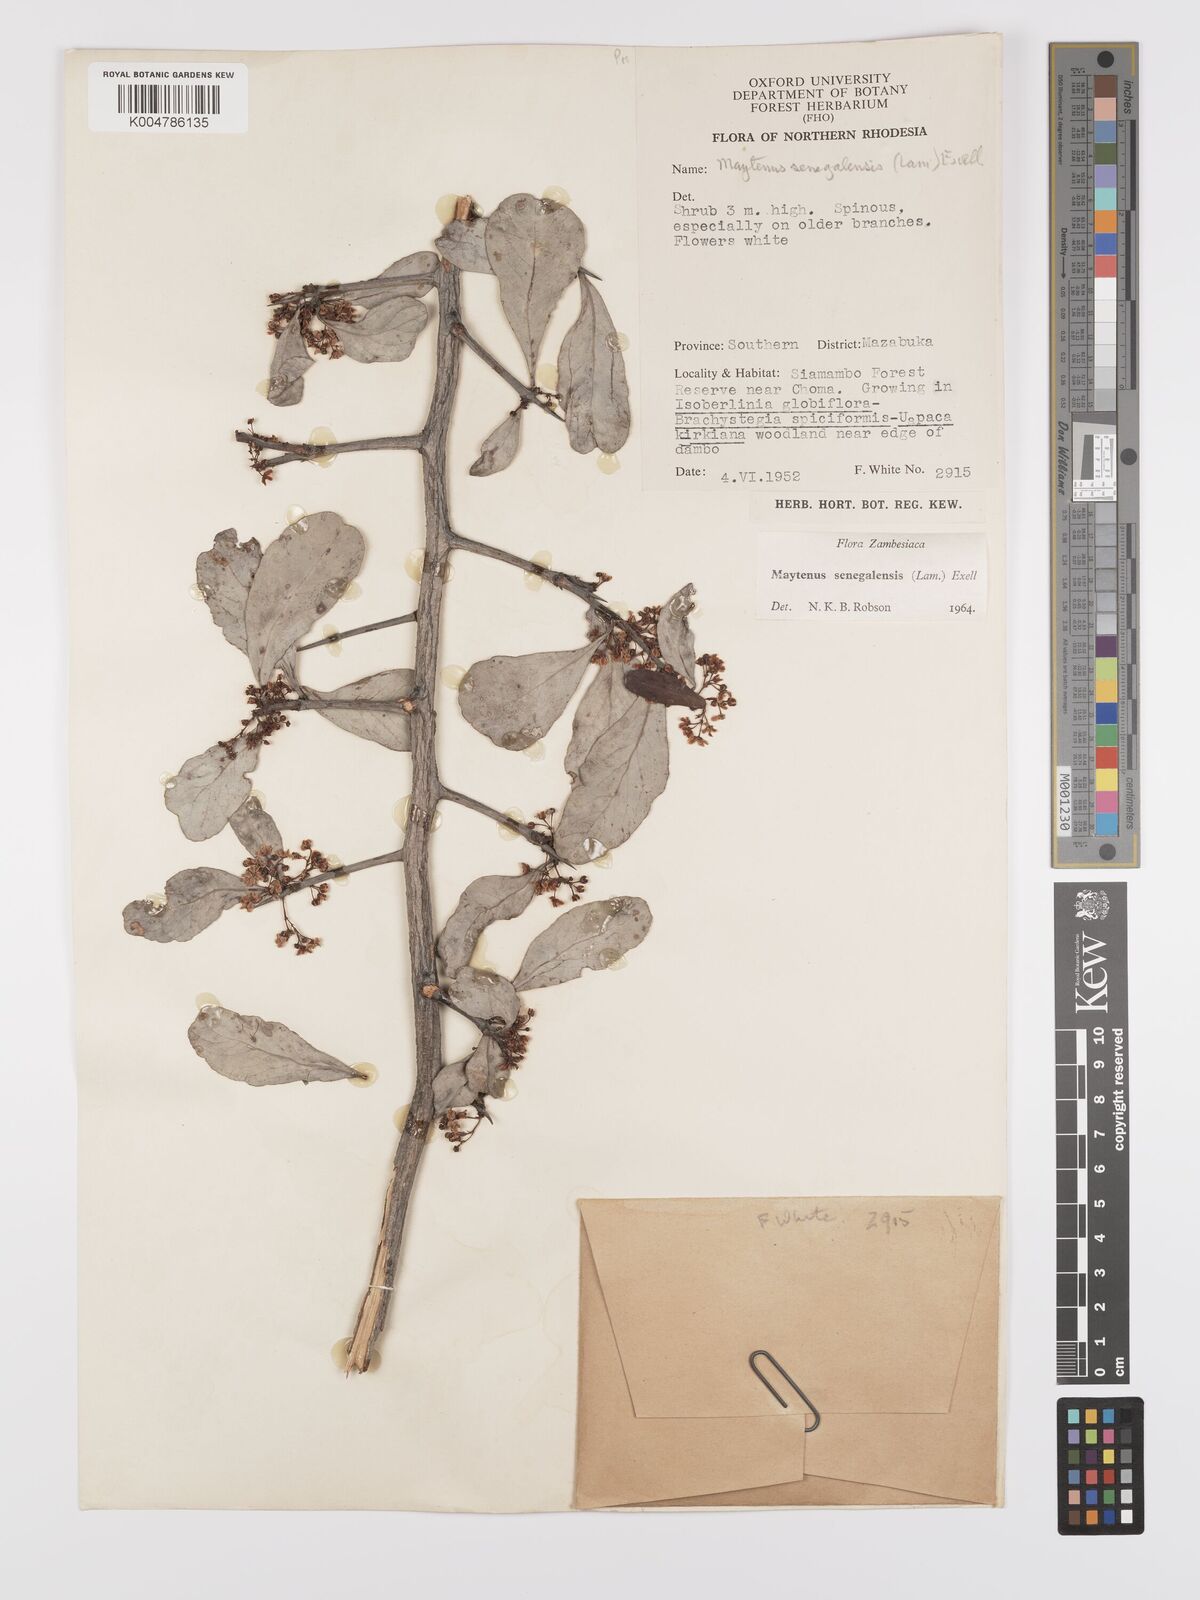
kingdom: Plantae
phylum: Tracheophyta
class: Magnoliopsida
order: Celastrales
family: Celastraceae
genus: Gymnosporia
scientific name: Gymnosporia senegalensis
